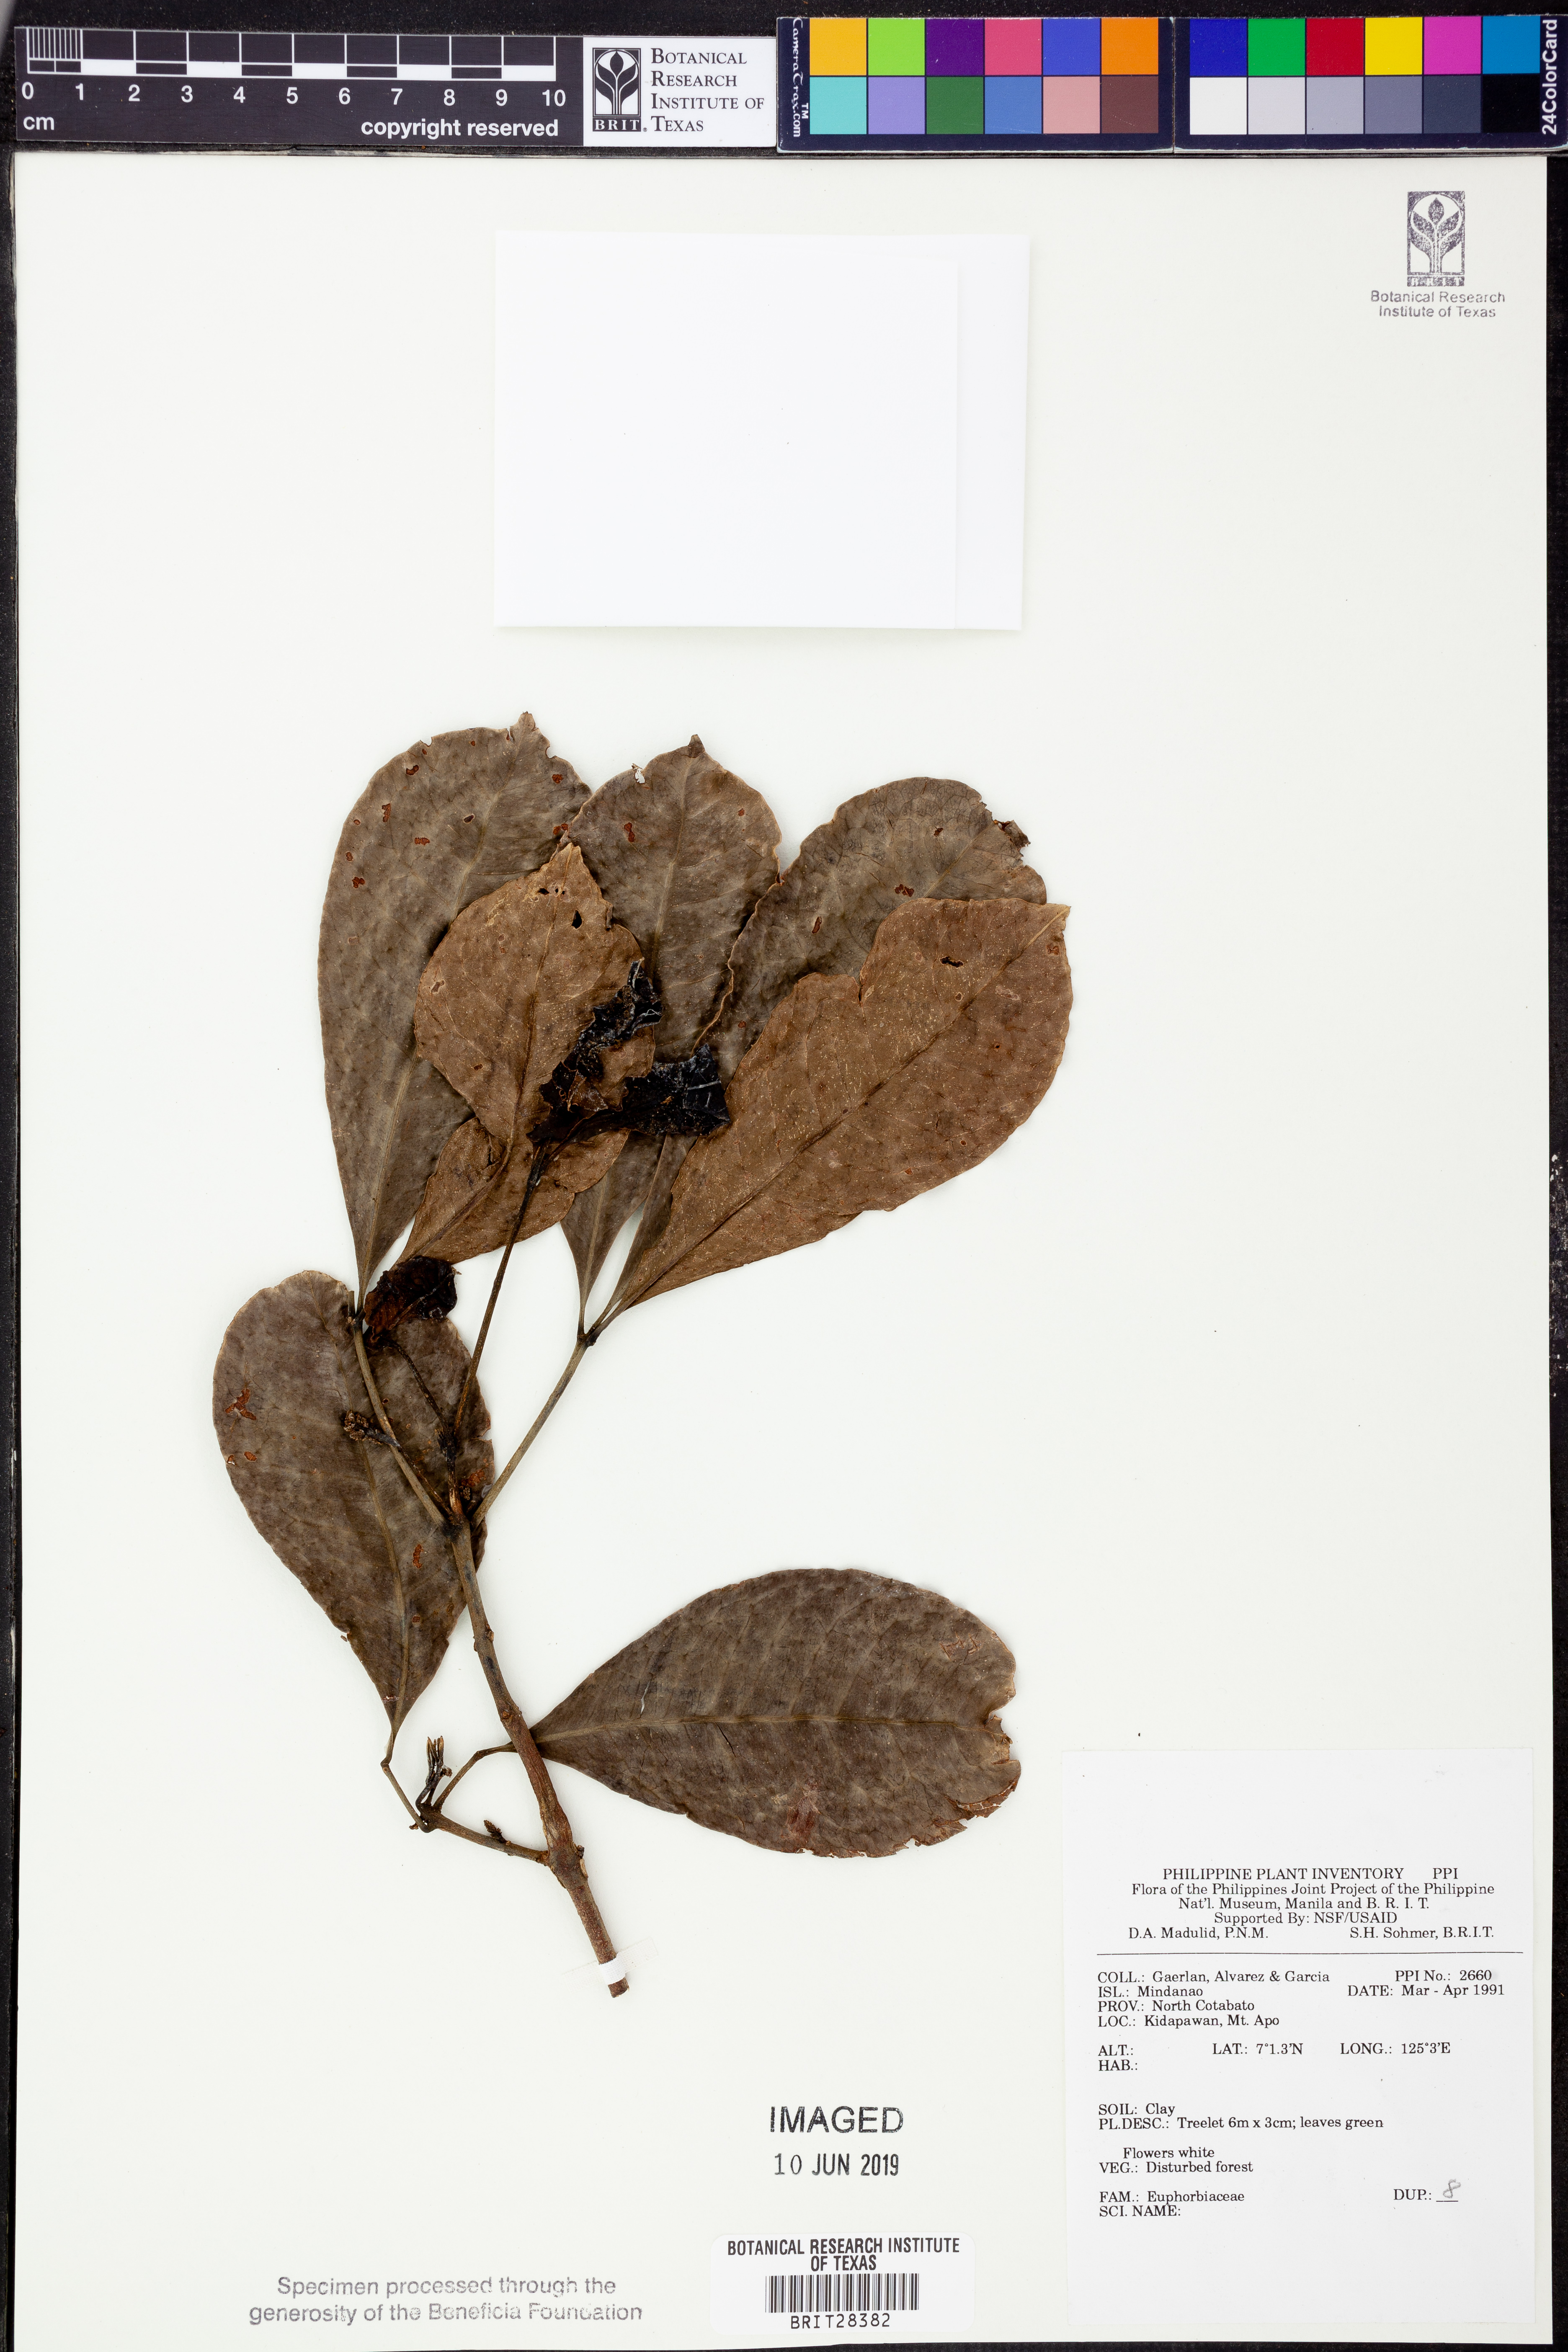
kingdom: Plantae
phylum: Tracheophyta
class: Magnoliopsida
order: Malpighiales
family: Euphorbiaceae
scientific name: Euphorbiaceae
